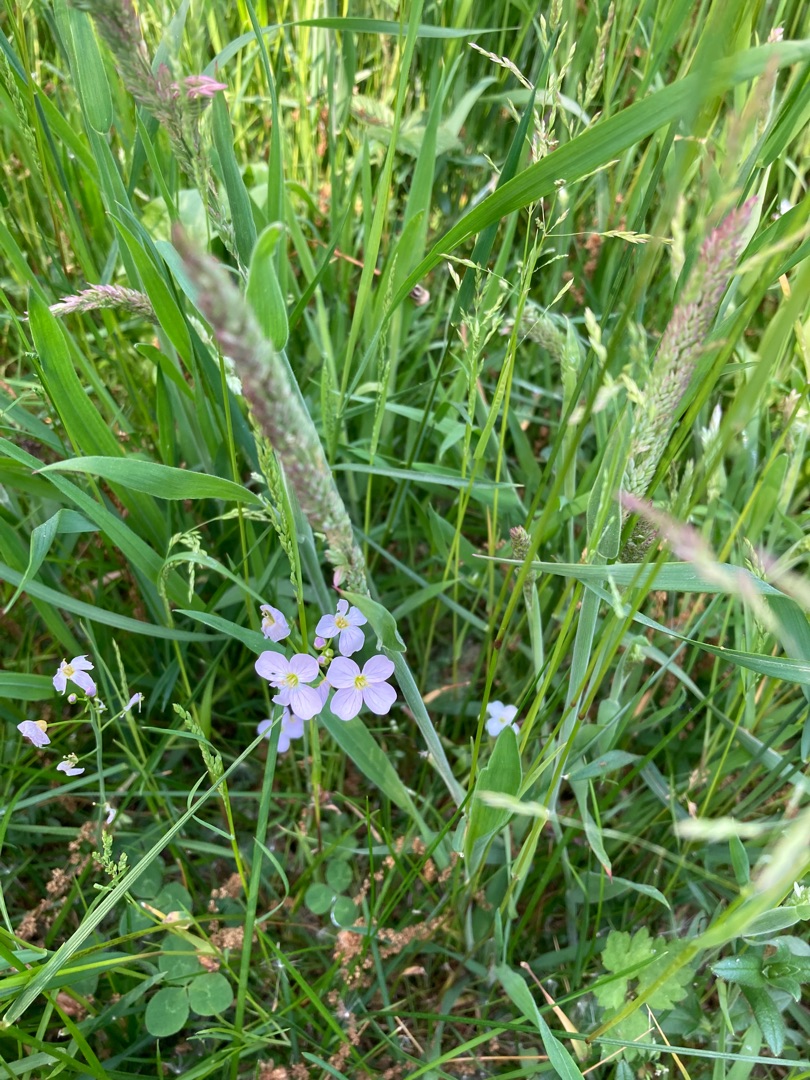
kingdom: Plantae
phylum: Tracheophyta
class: Magnoliopsida
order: Brassicales
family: Brassicaceae
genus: Cardamine
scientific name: Cardamine pratensis
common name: Engkarse
